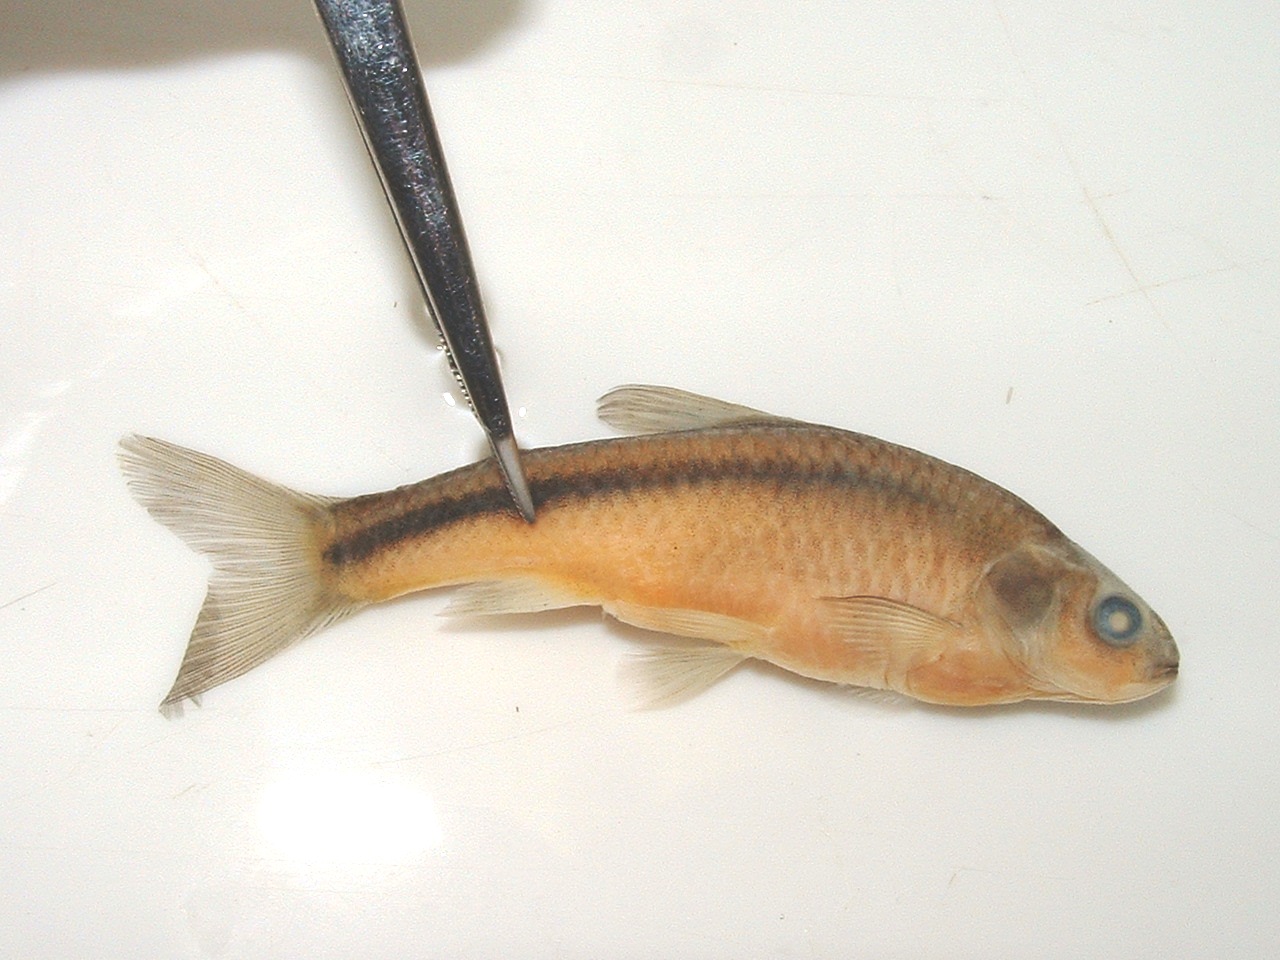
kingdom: Animalia
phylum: Chordata
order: Cypriniformes
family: Cyprinidae
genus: Enteromius
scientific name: Enteromius anoplus
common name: Chubbyhead barb
